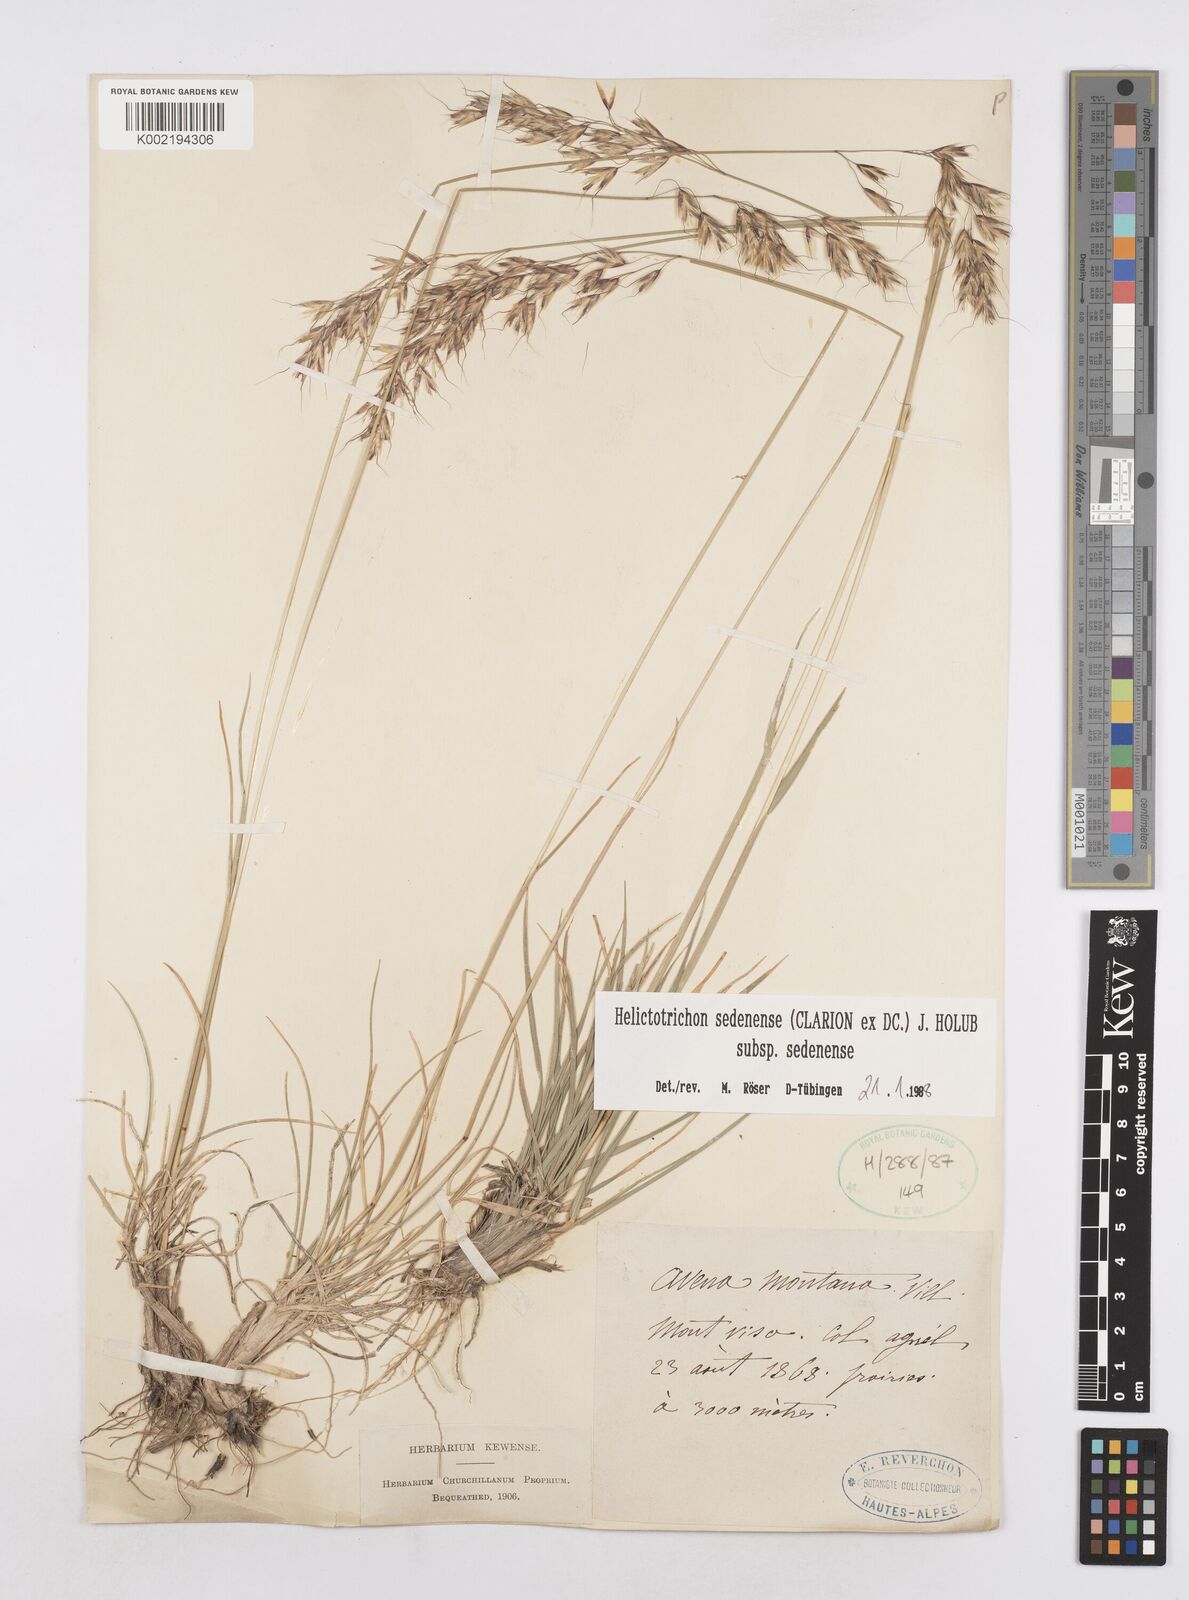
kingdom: Plantae
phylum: Tracheophyta
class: Liliopsida
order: Poales
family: Poaceae
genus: Helictotrichon
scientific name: Helictotrichon sedenense
